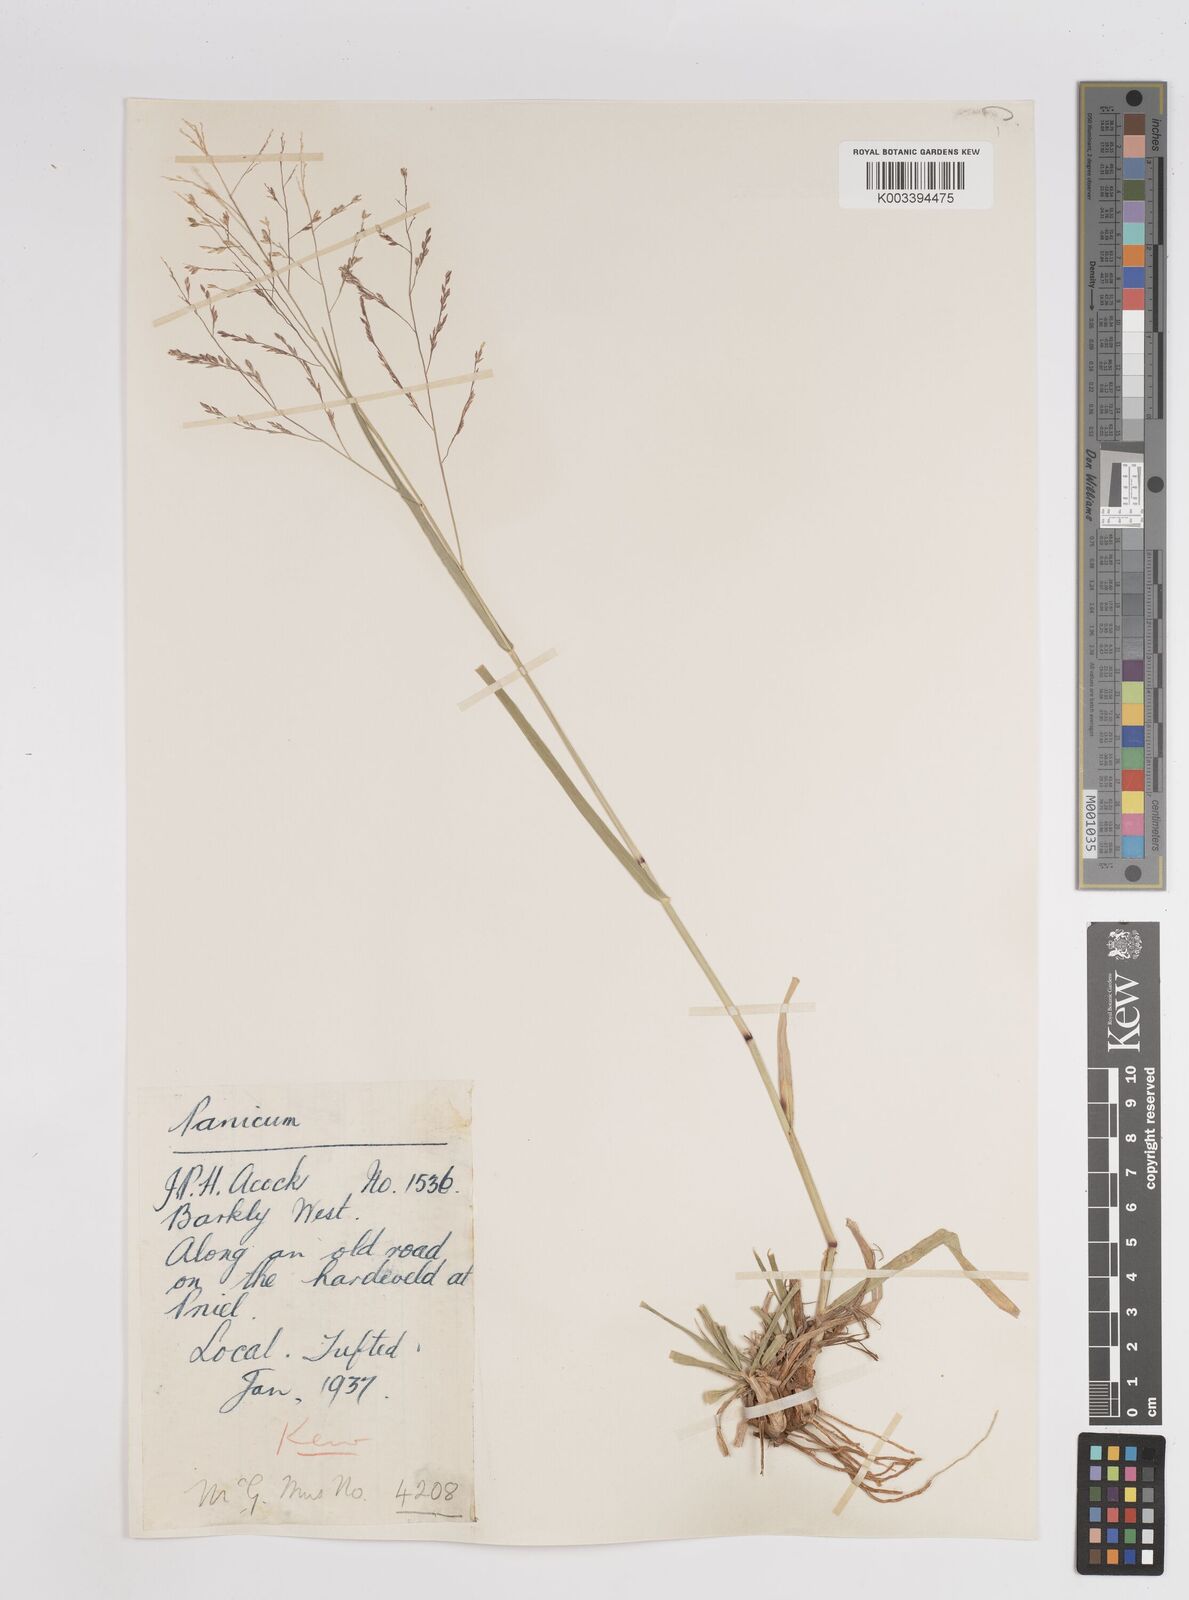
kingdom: Plantae
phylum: Tracheophyta
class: Liliopsida
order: Poales
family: Poaceae
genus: Panicum
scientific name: Panicum
